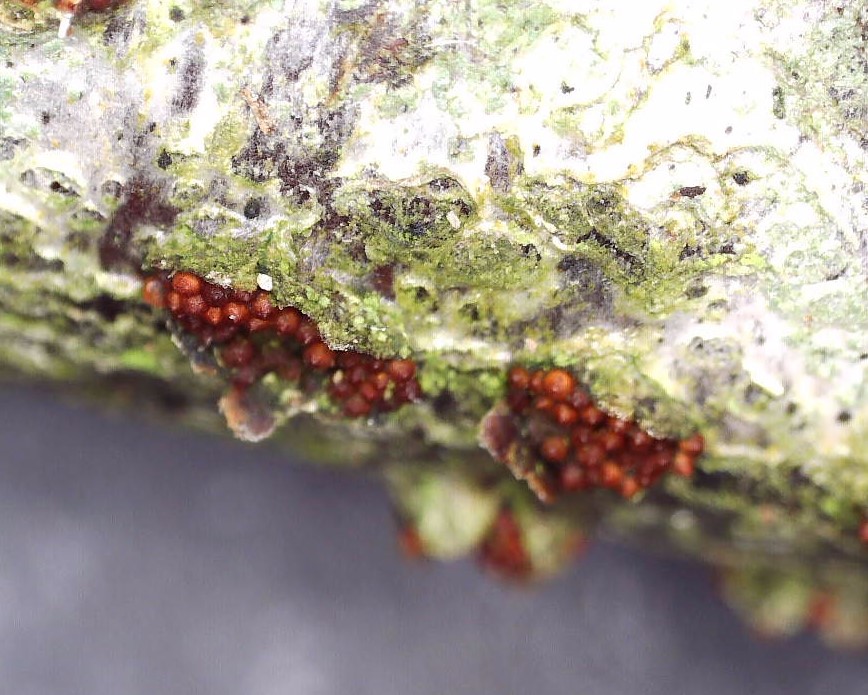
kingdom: Fungi
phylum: Ascomycota
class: Sordariomycetes
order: Hypocreales
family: Nectriaceae
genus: Neonectria
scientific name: Neonectria coccinea
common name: bøgebark-cinnobersvamp
